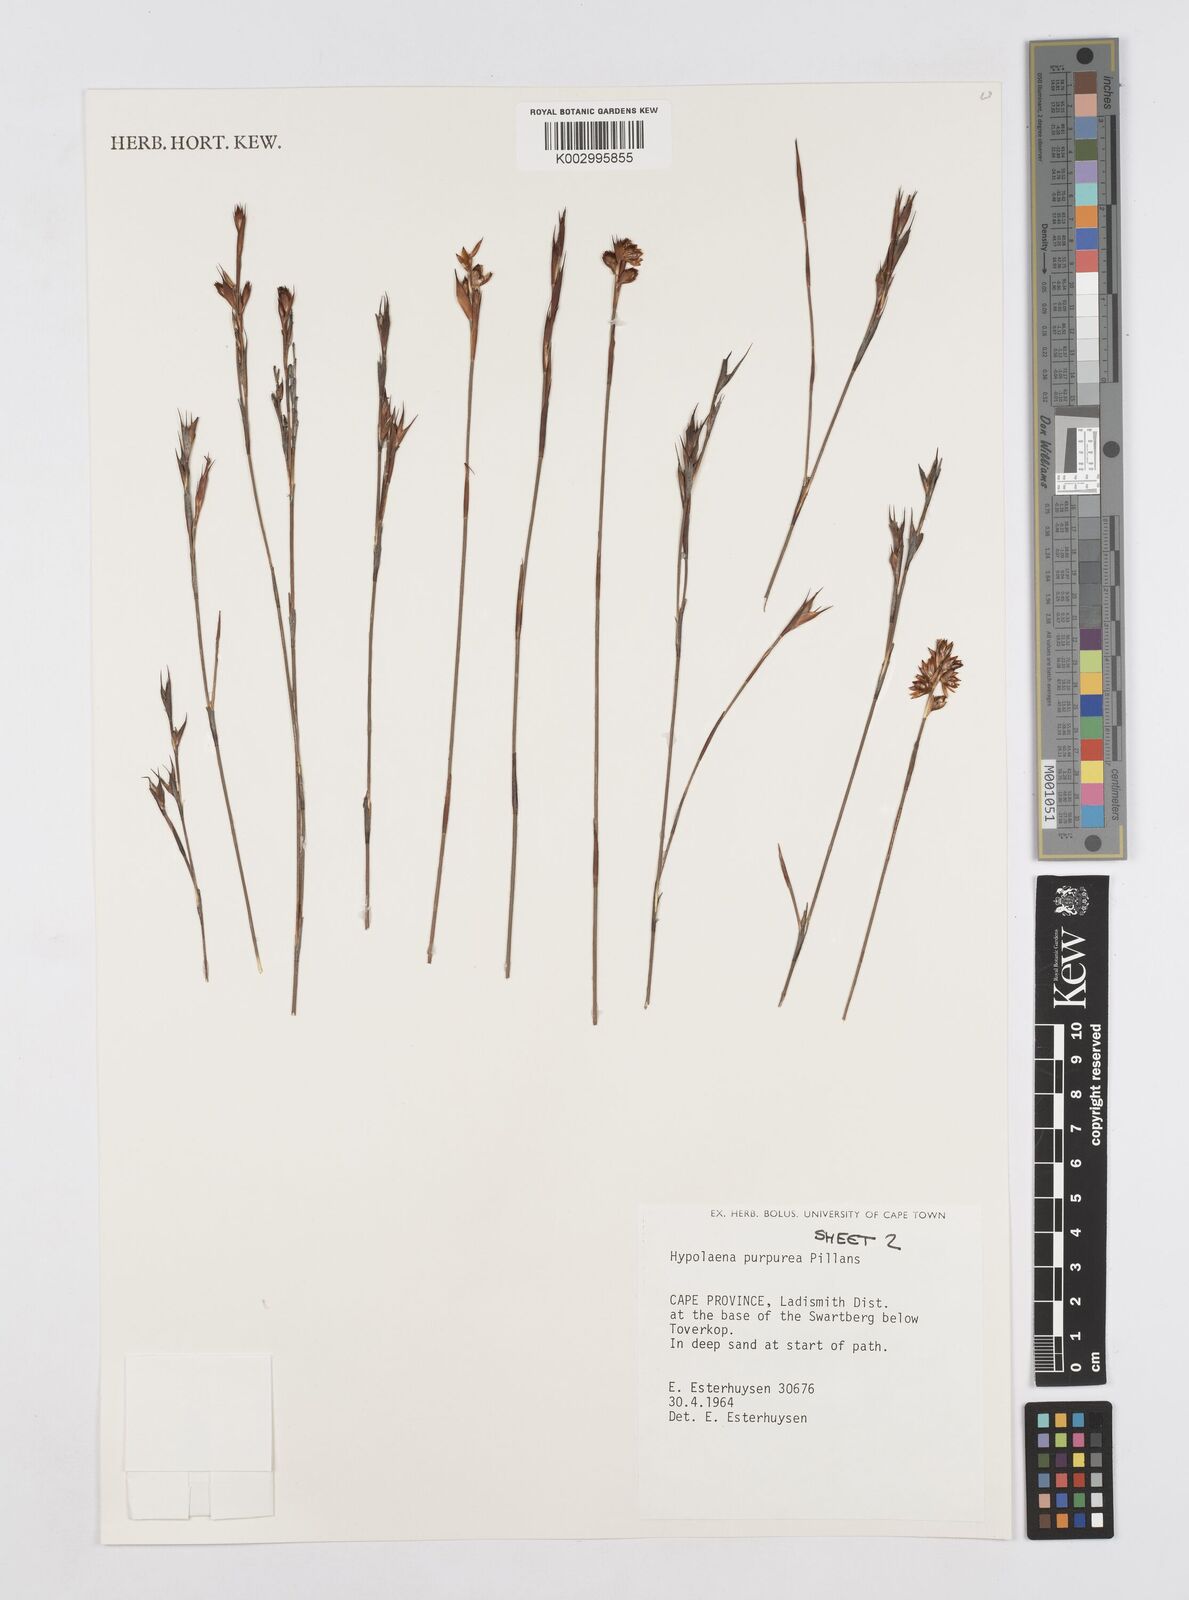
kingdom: Plantae
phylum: Tracheophyta
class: Liliopsida
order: Poales
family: Restionaceae
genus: Mastersiella
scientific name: Mastersiella purpurea
